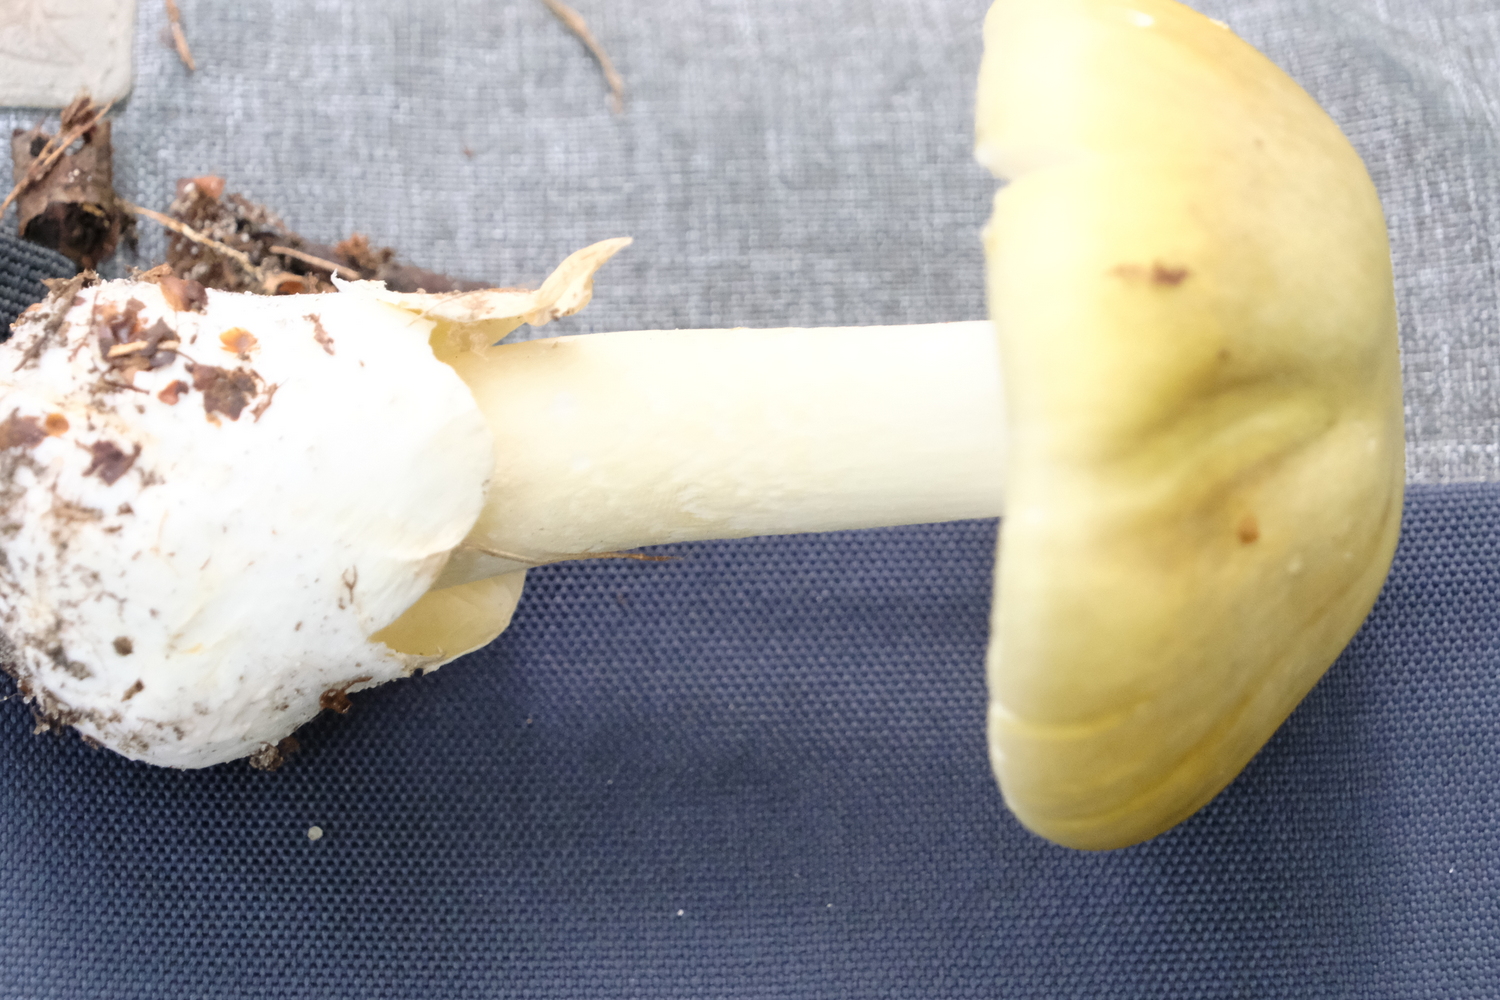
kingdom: Fungi
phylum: Basidiomycota
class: Agaricomycetes
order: Agaricales
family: Amanitaceae
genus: Amanita
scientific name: Amanita phalloides
